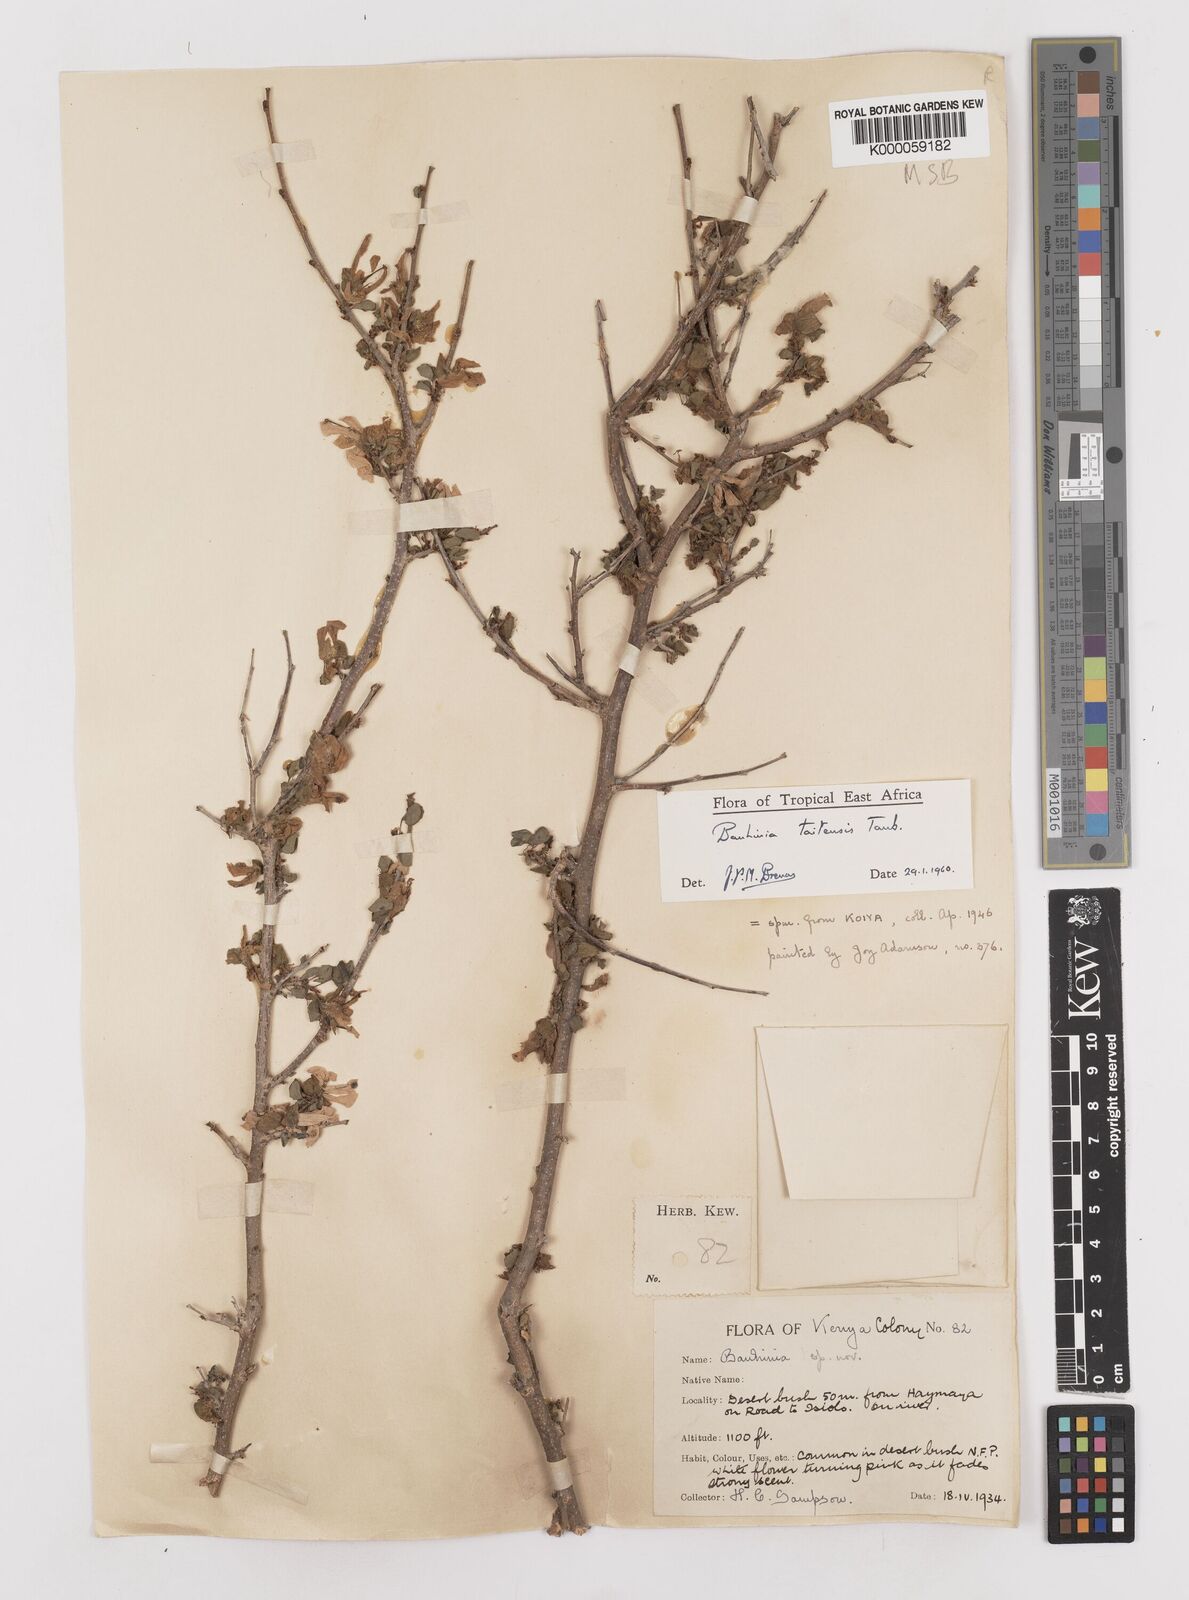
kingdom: Plantae
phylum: Tracheophyta
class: Magnoliopsida
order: Fabales
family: Fabaceae
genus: Bauhinia
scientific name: Bauhinia taitensis
